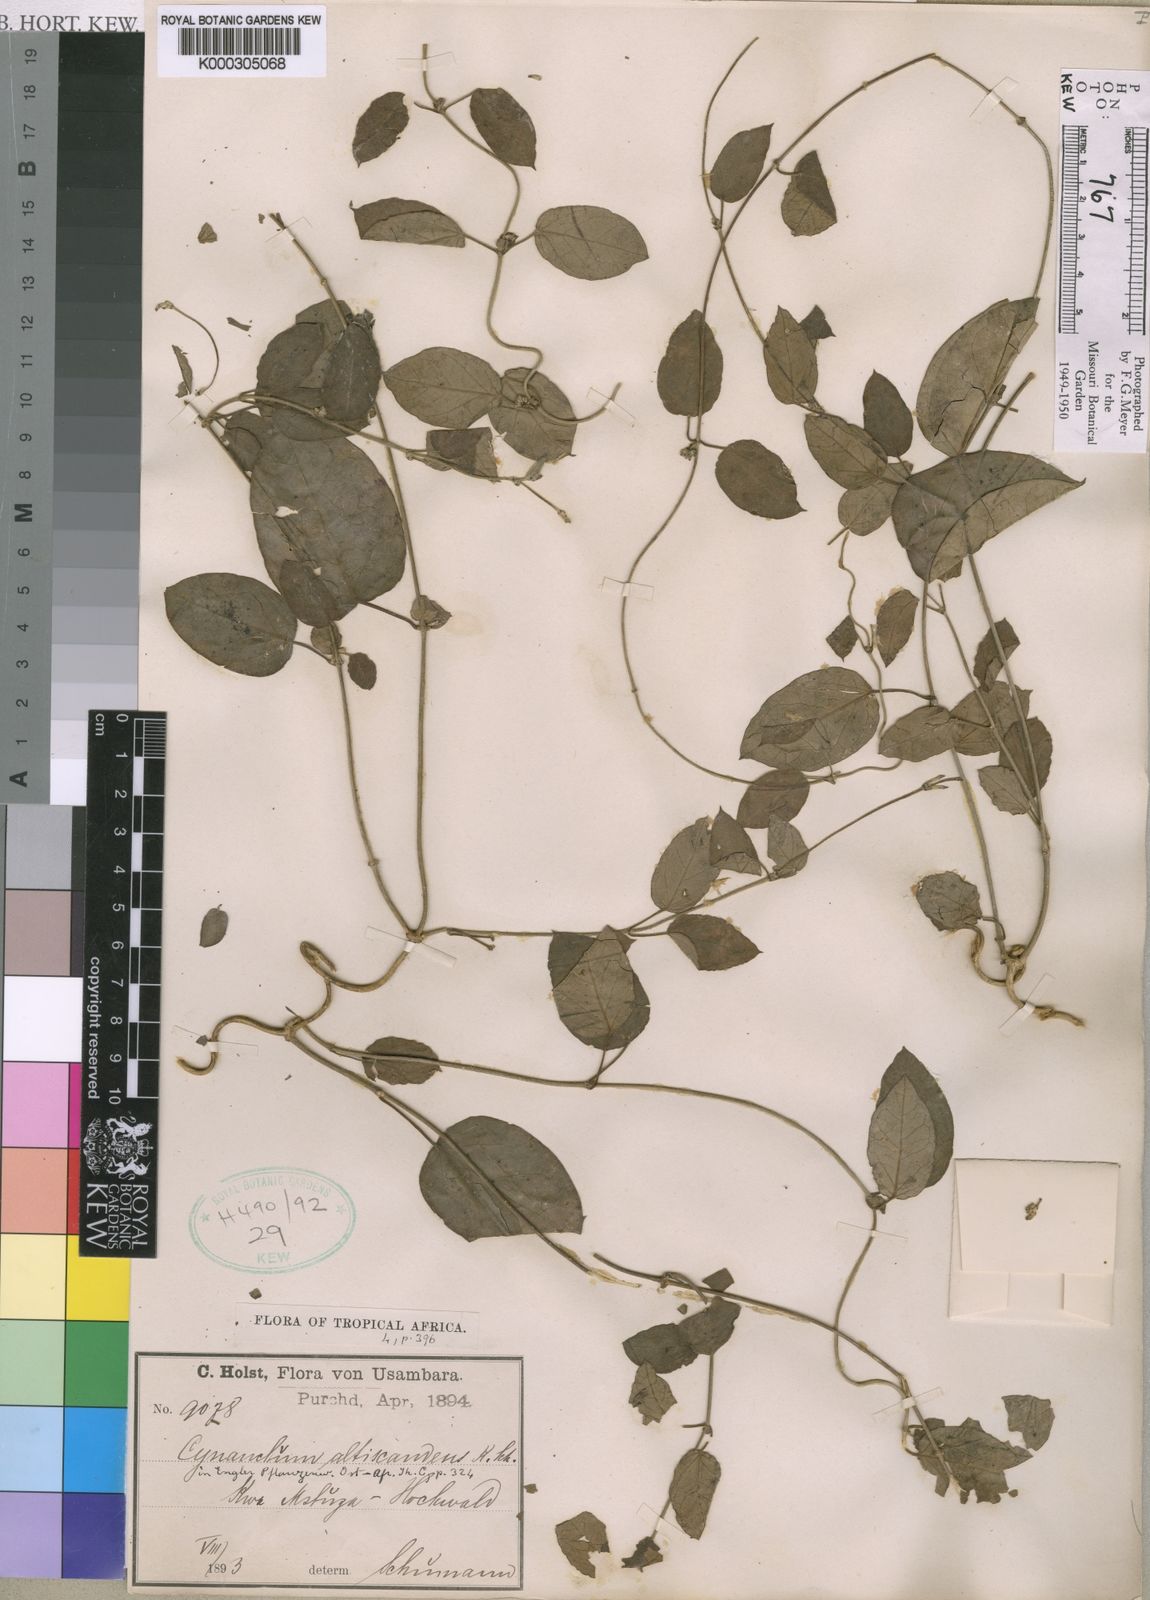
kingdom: Plantae
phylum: Tracheophyta
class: Magnoliopsida
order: Gentianales
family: Apocynaceae
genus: Cynanchum
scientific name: Cynanchum altiscandens
